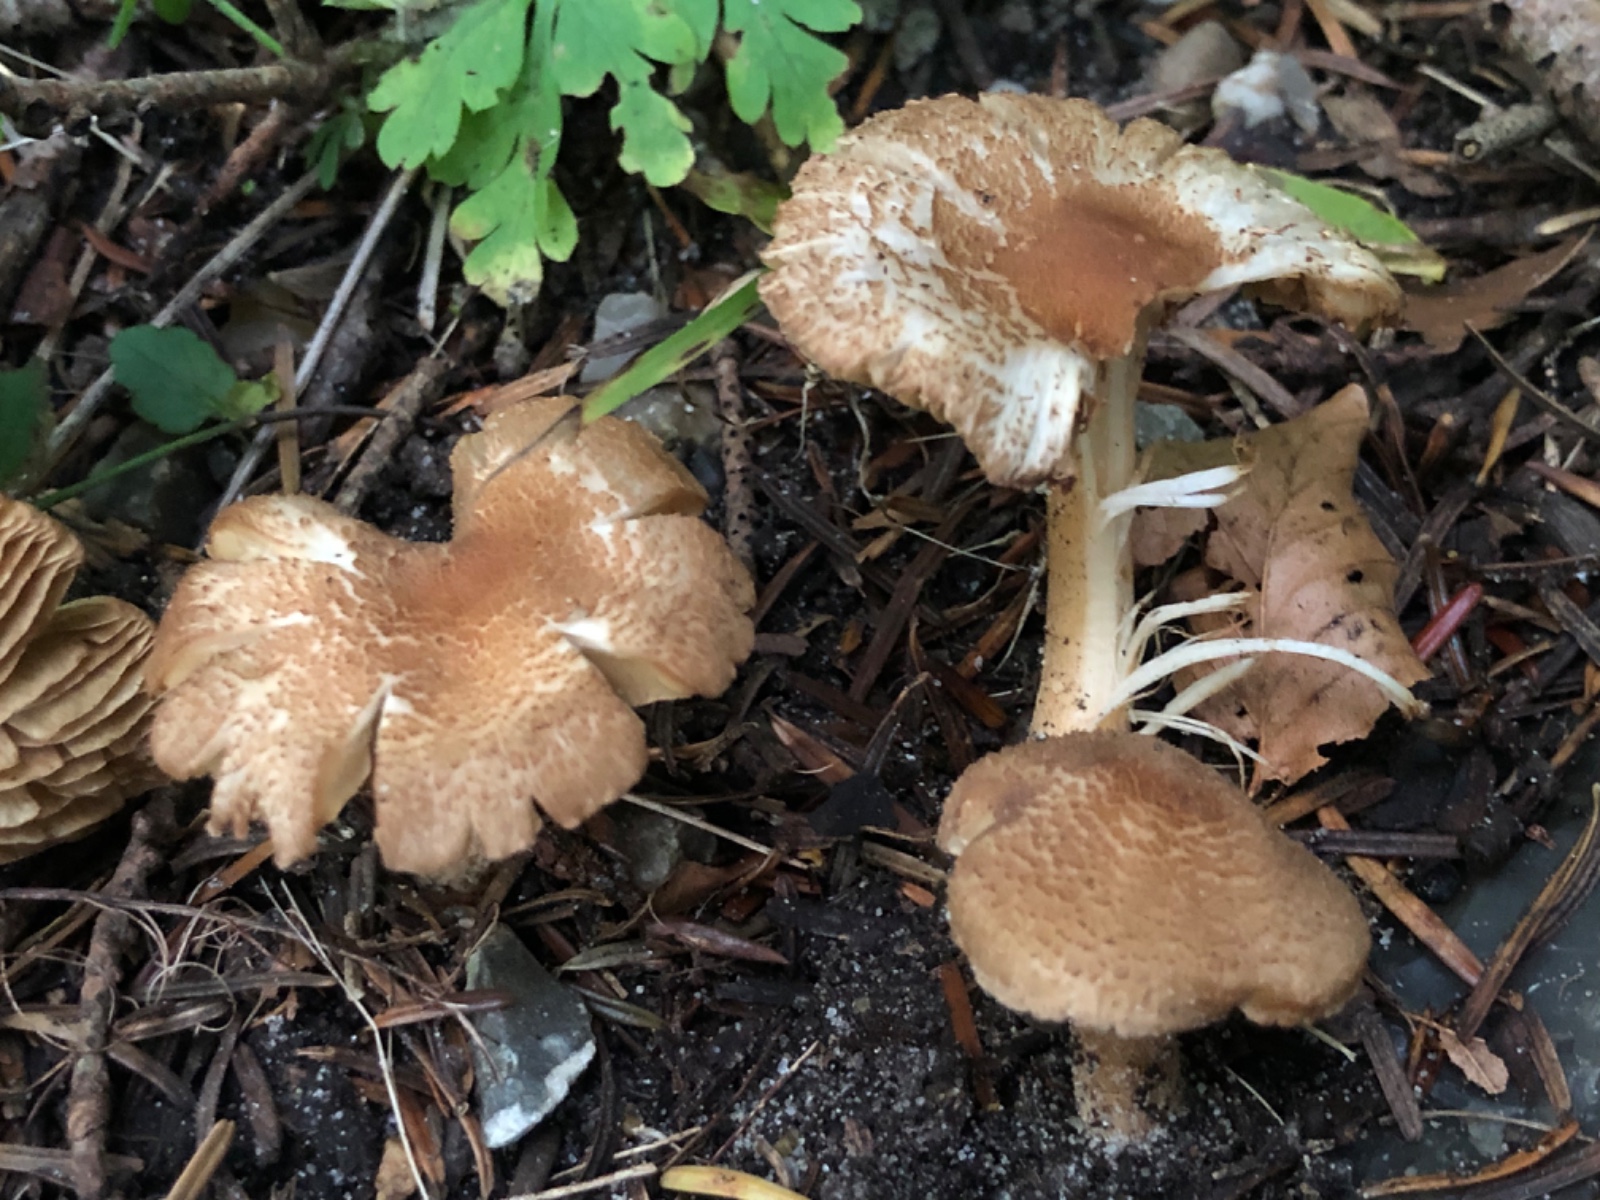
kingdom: Fungi
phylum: Basidiomycota
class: Agaricomycetes
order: Agaricales
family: Inocybaceae
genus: Inocybe
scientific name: Inocybe
